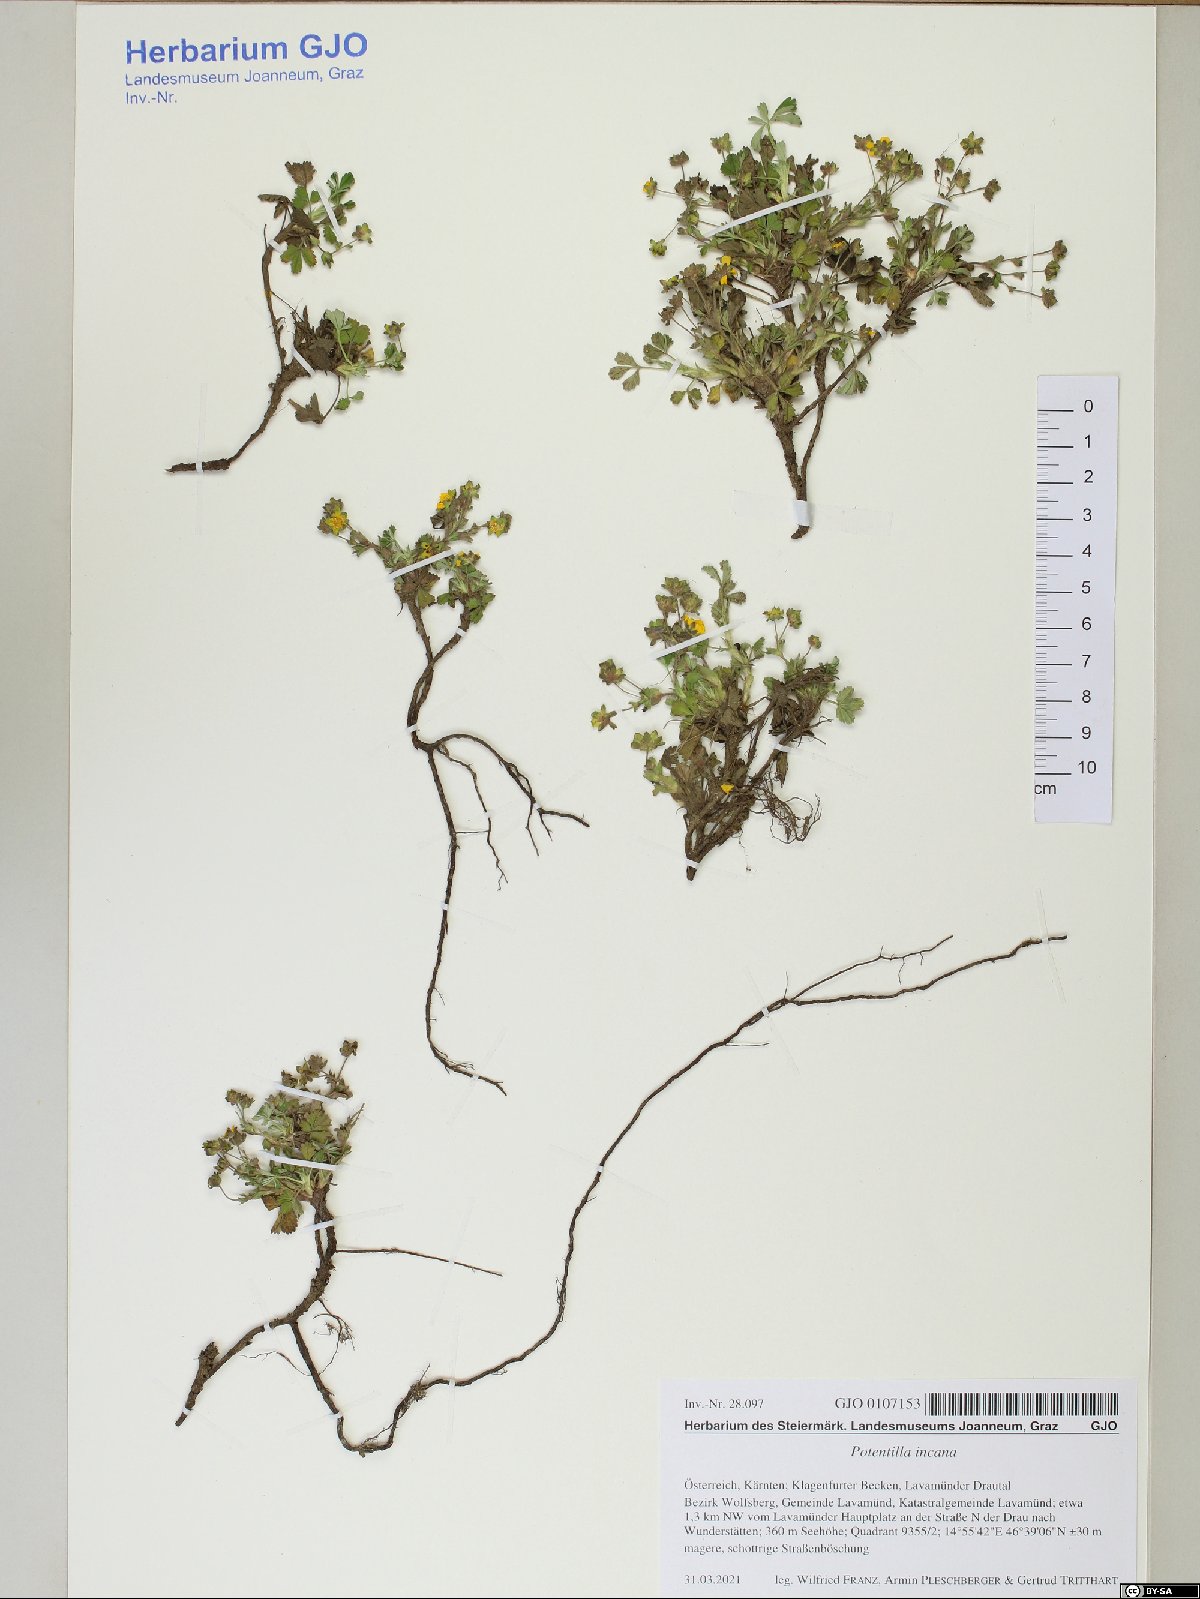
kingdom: Plantae
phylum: Tracheophyta
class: Magnoliopsida
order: Rosales
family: Rosaceae
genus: Potentilla
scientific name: Potentilla cinerea
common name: Ashy cinquefoil
